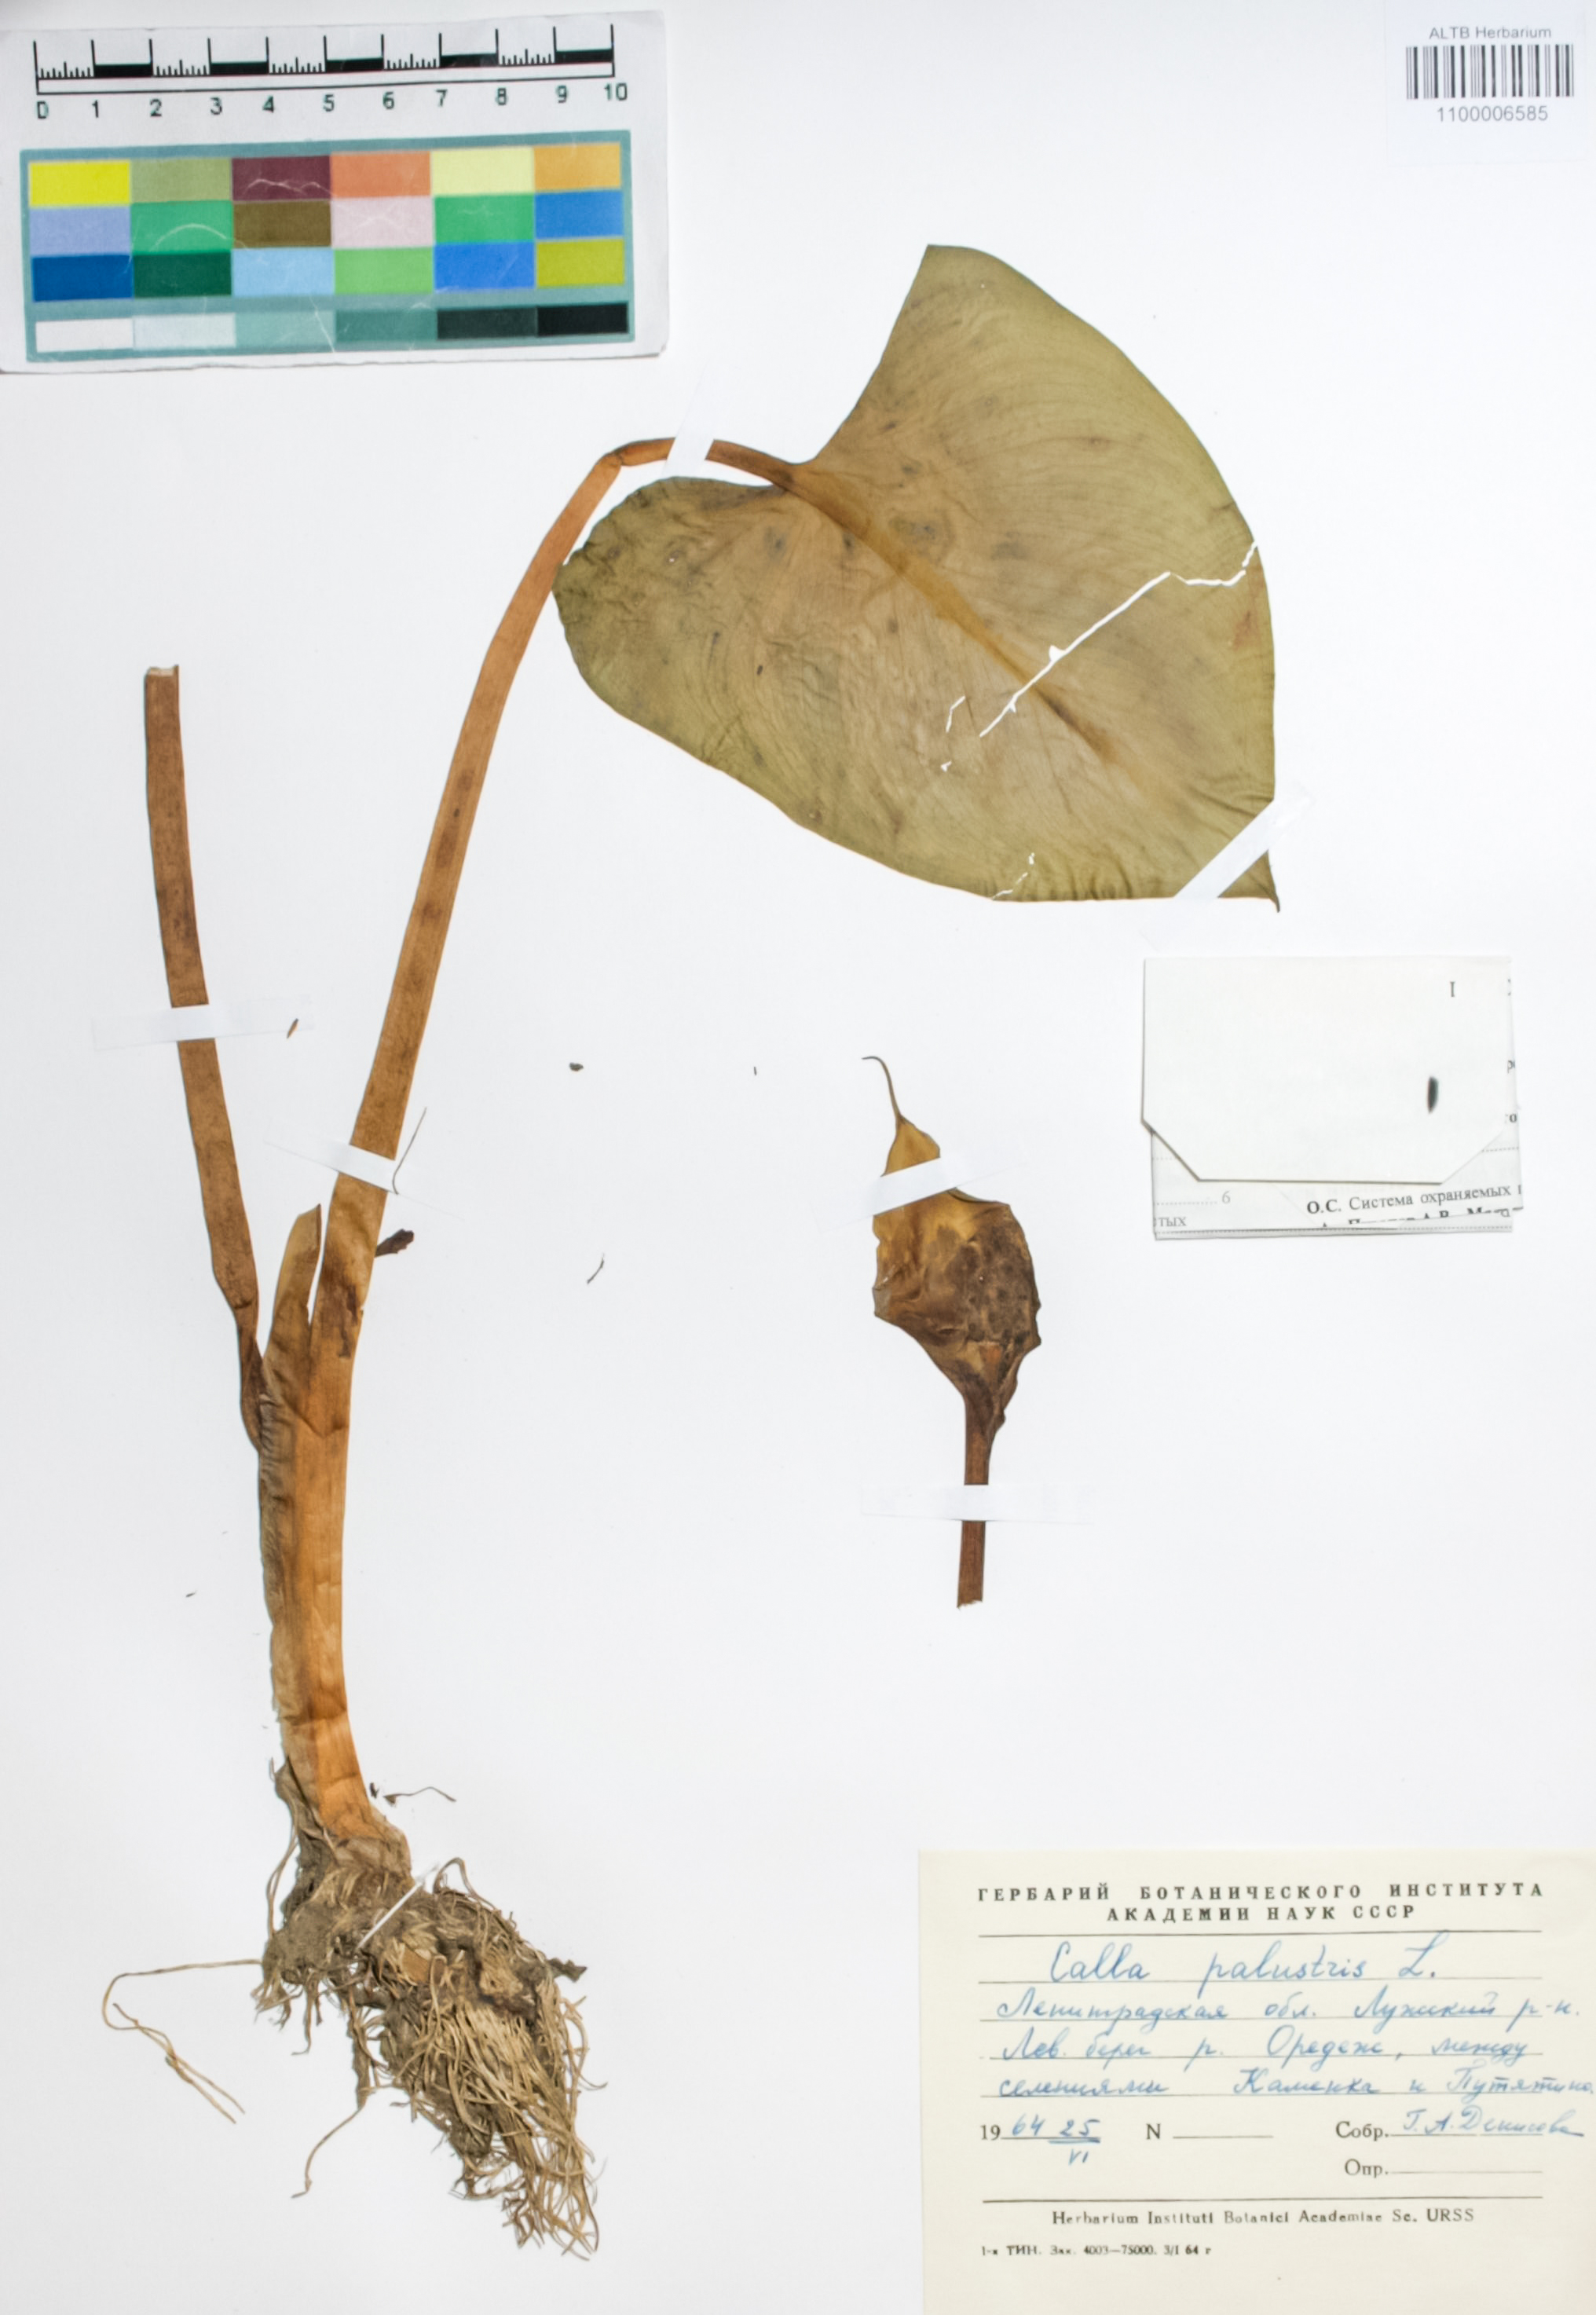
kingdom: Plantae
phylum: Tracheophyta
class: Liliopsida
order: Alismatales
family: Araceae
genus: Calla
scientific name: Calla palustris
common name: Bog arum
